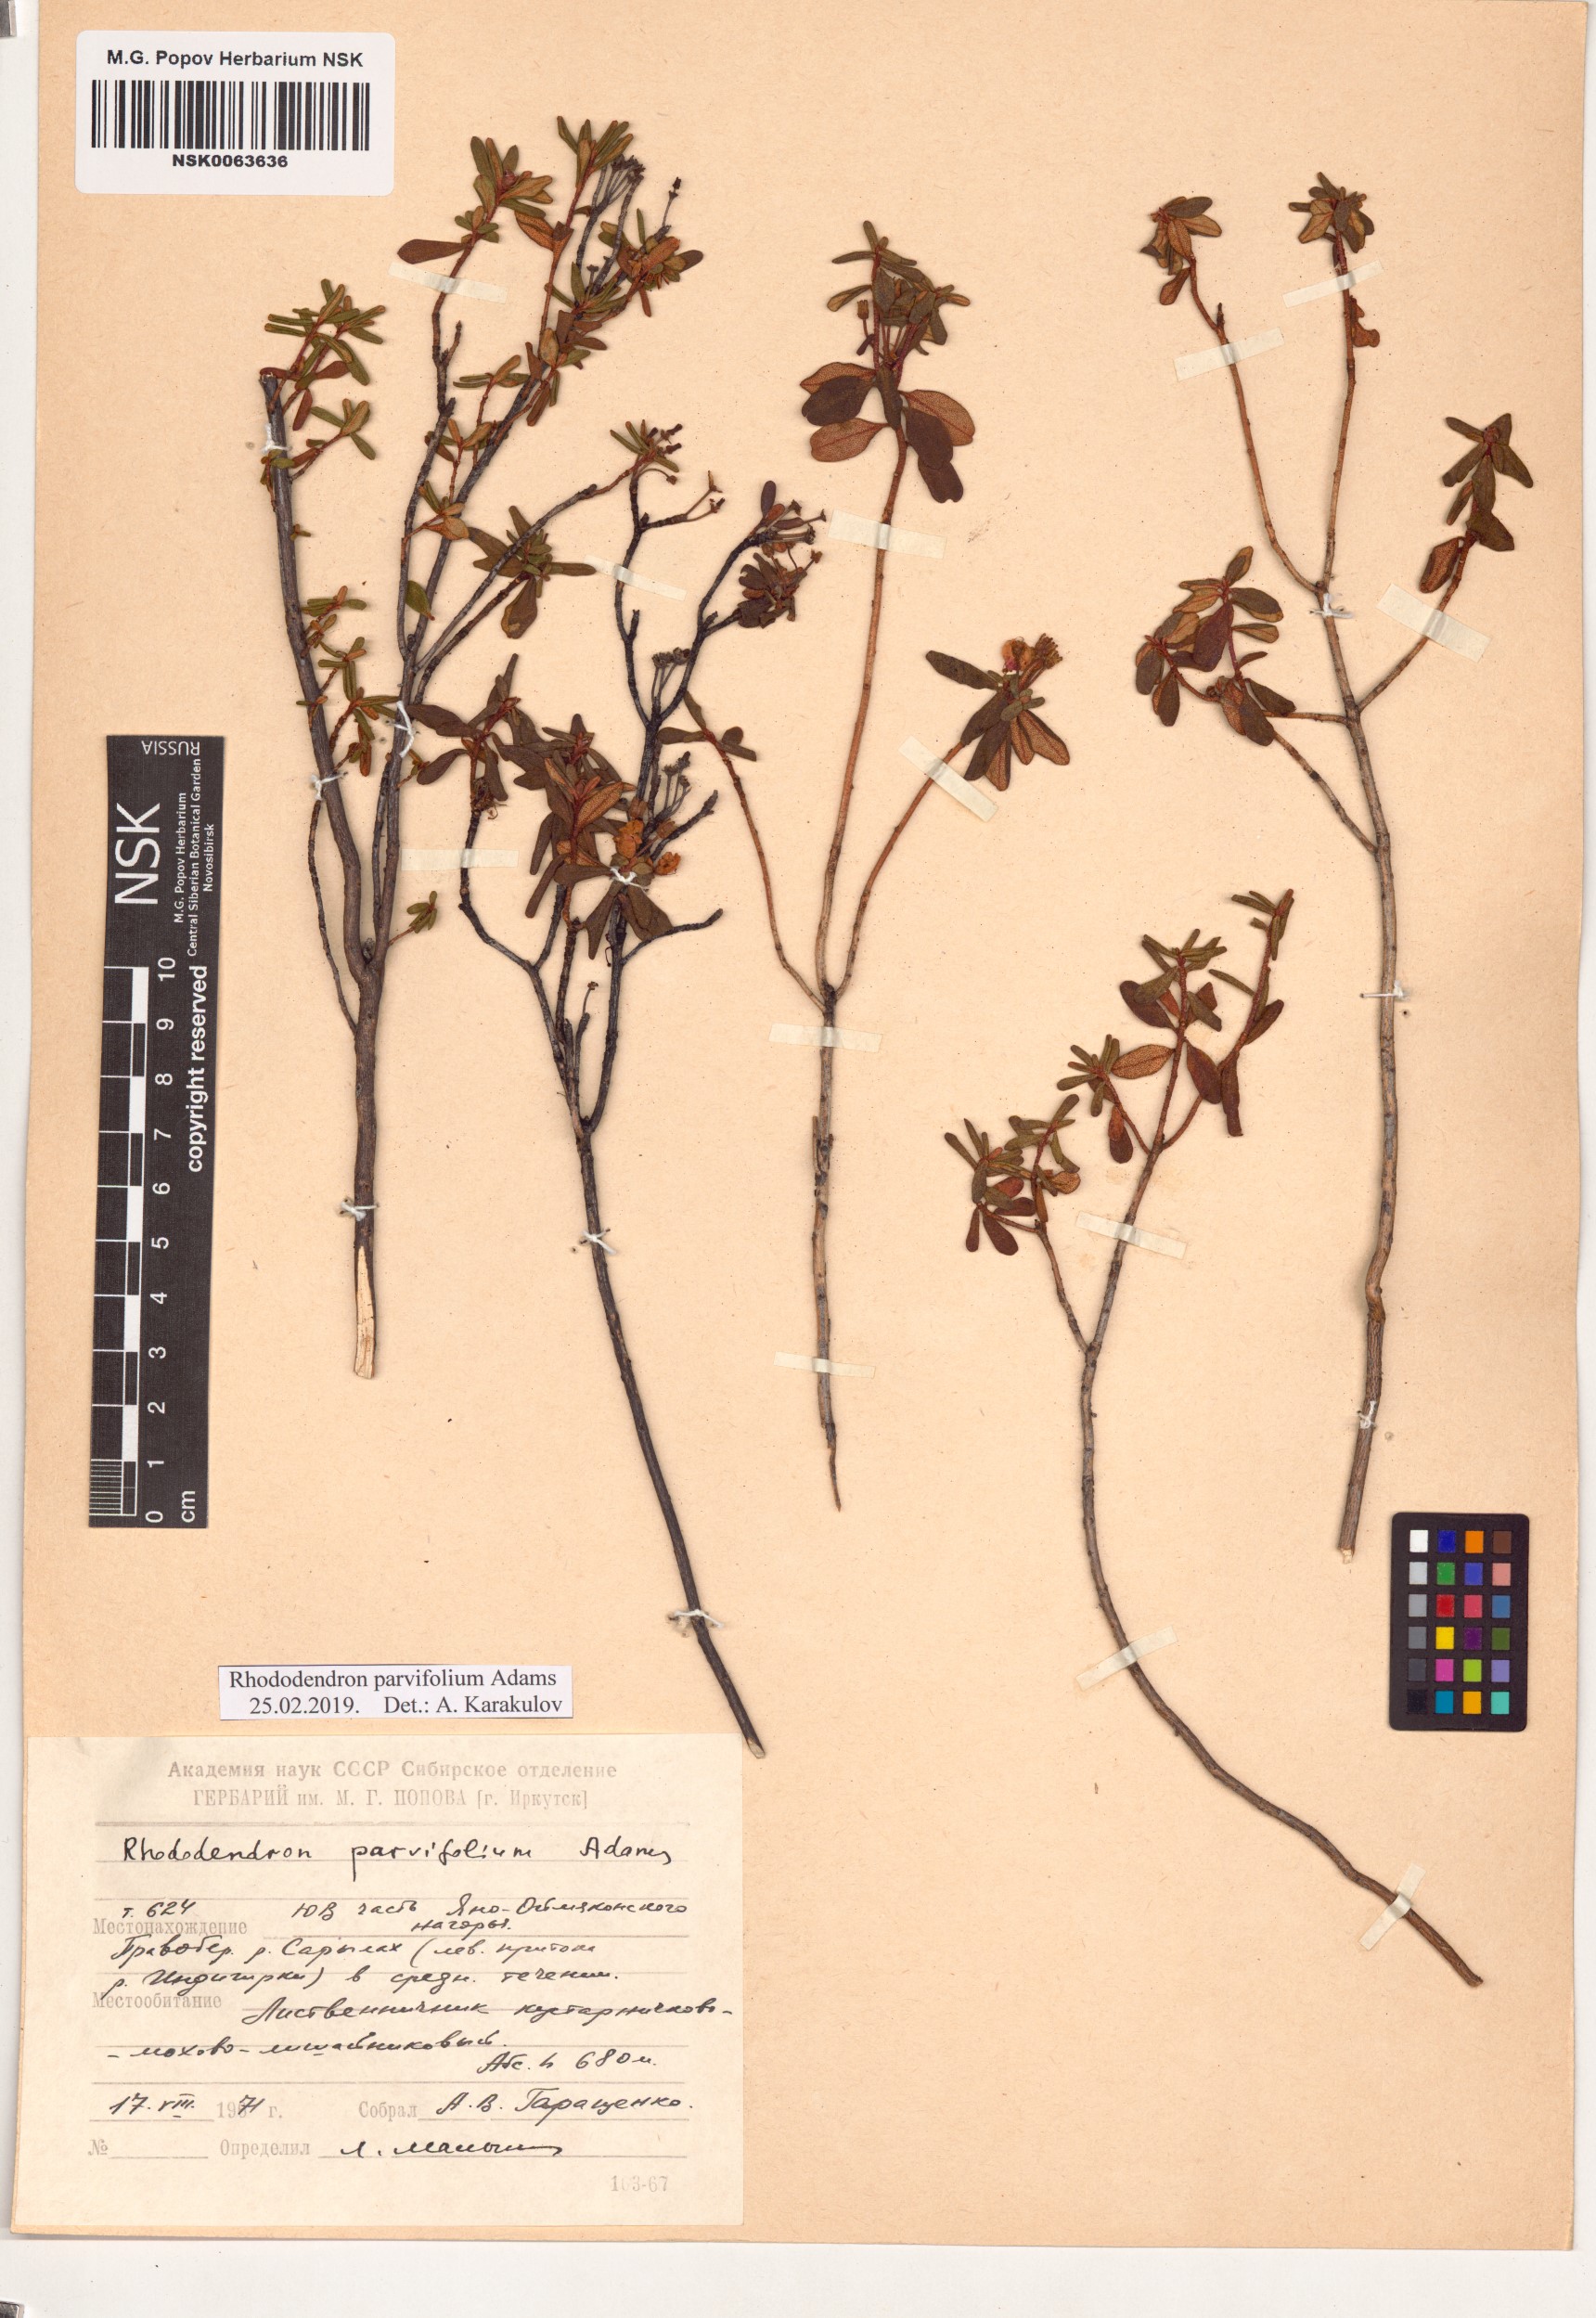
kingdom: Plantae
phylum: Tracheophyta
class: Magnoliopsida
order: Ericales
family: Ericaceae
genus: Rhododendron
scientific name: Rhododendron parvifolium
